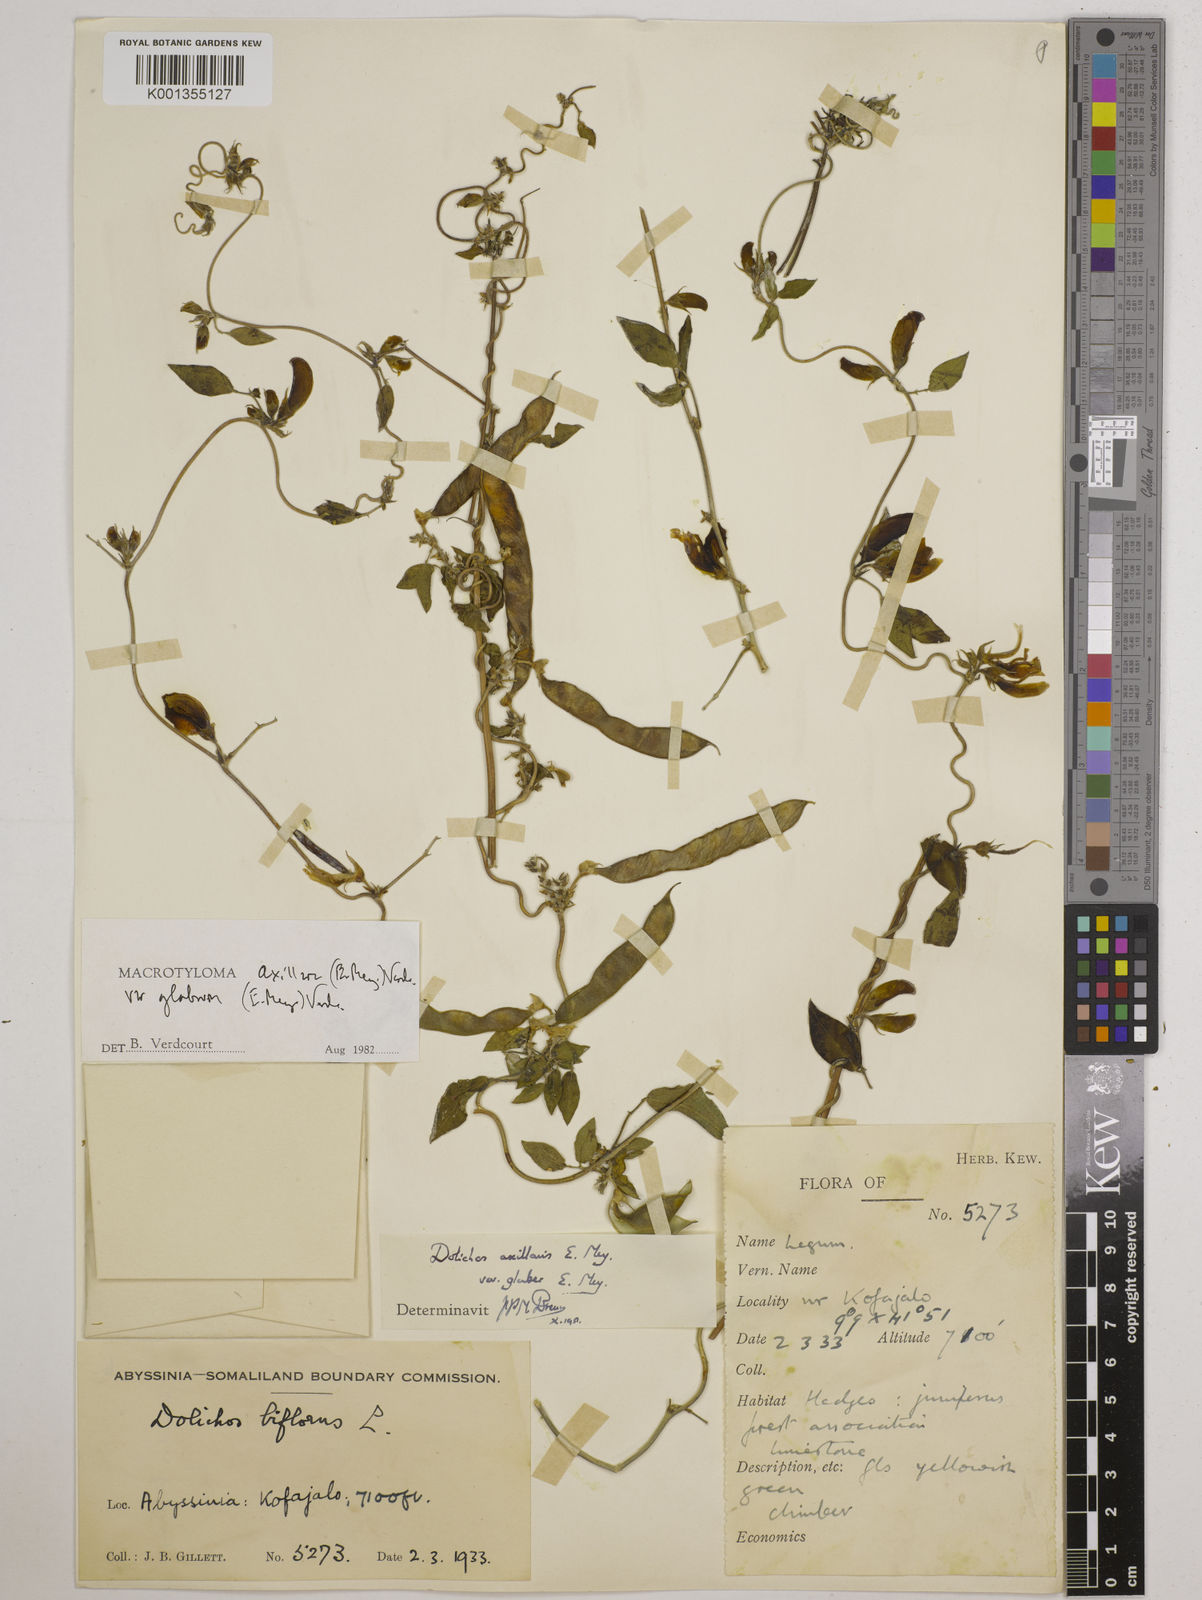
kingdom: Plantae
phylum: Tracheophyta
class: Magnoliopsida
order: Fabales
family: Fabaceae
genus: Macrotyloma
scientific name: Macrotyloma
